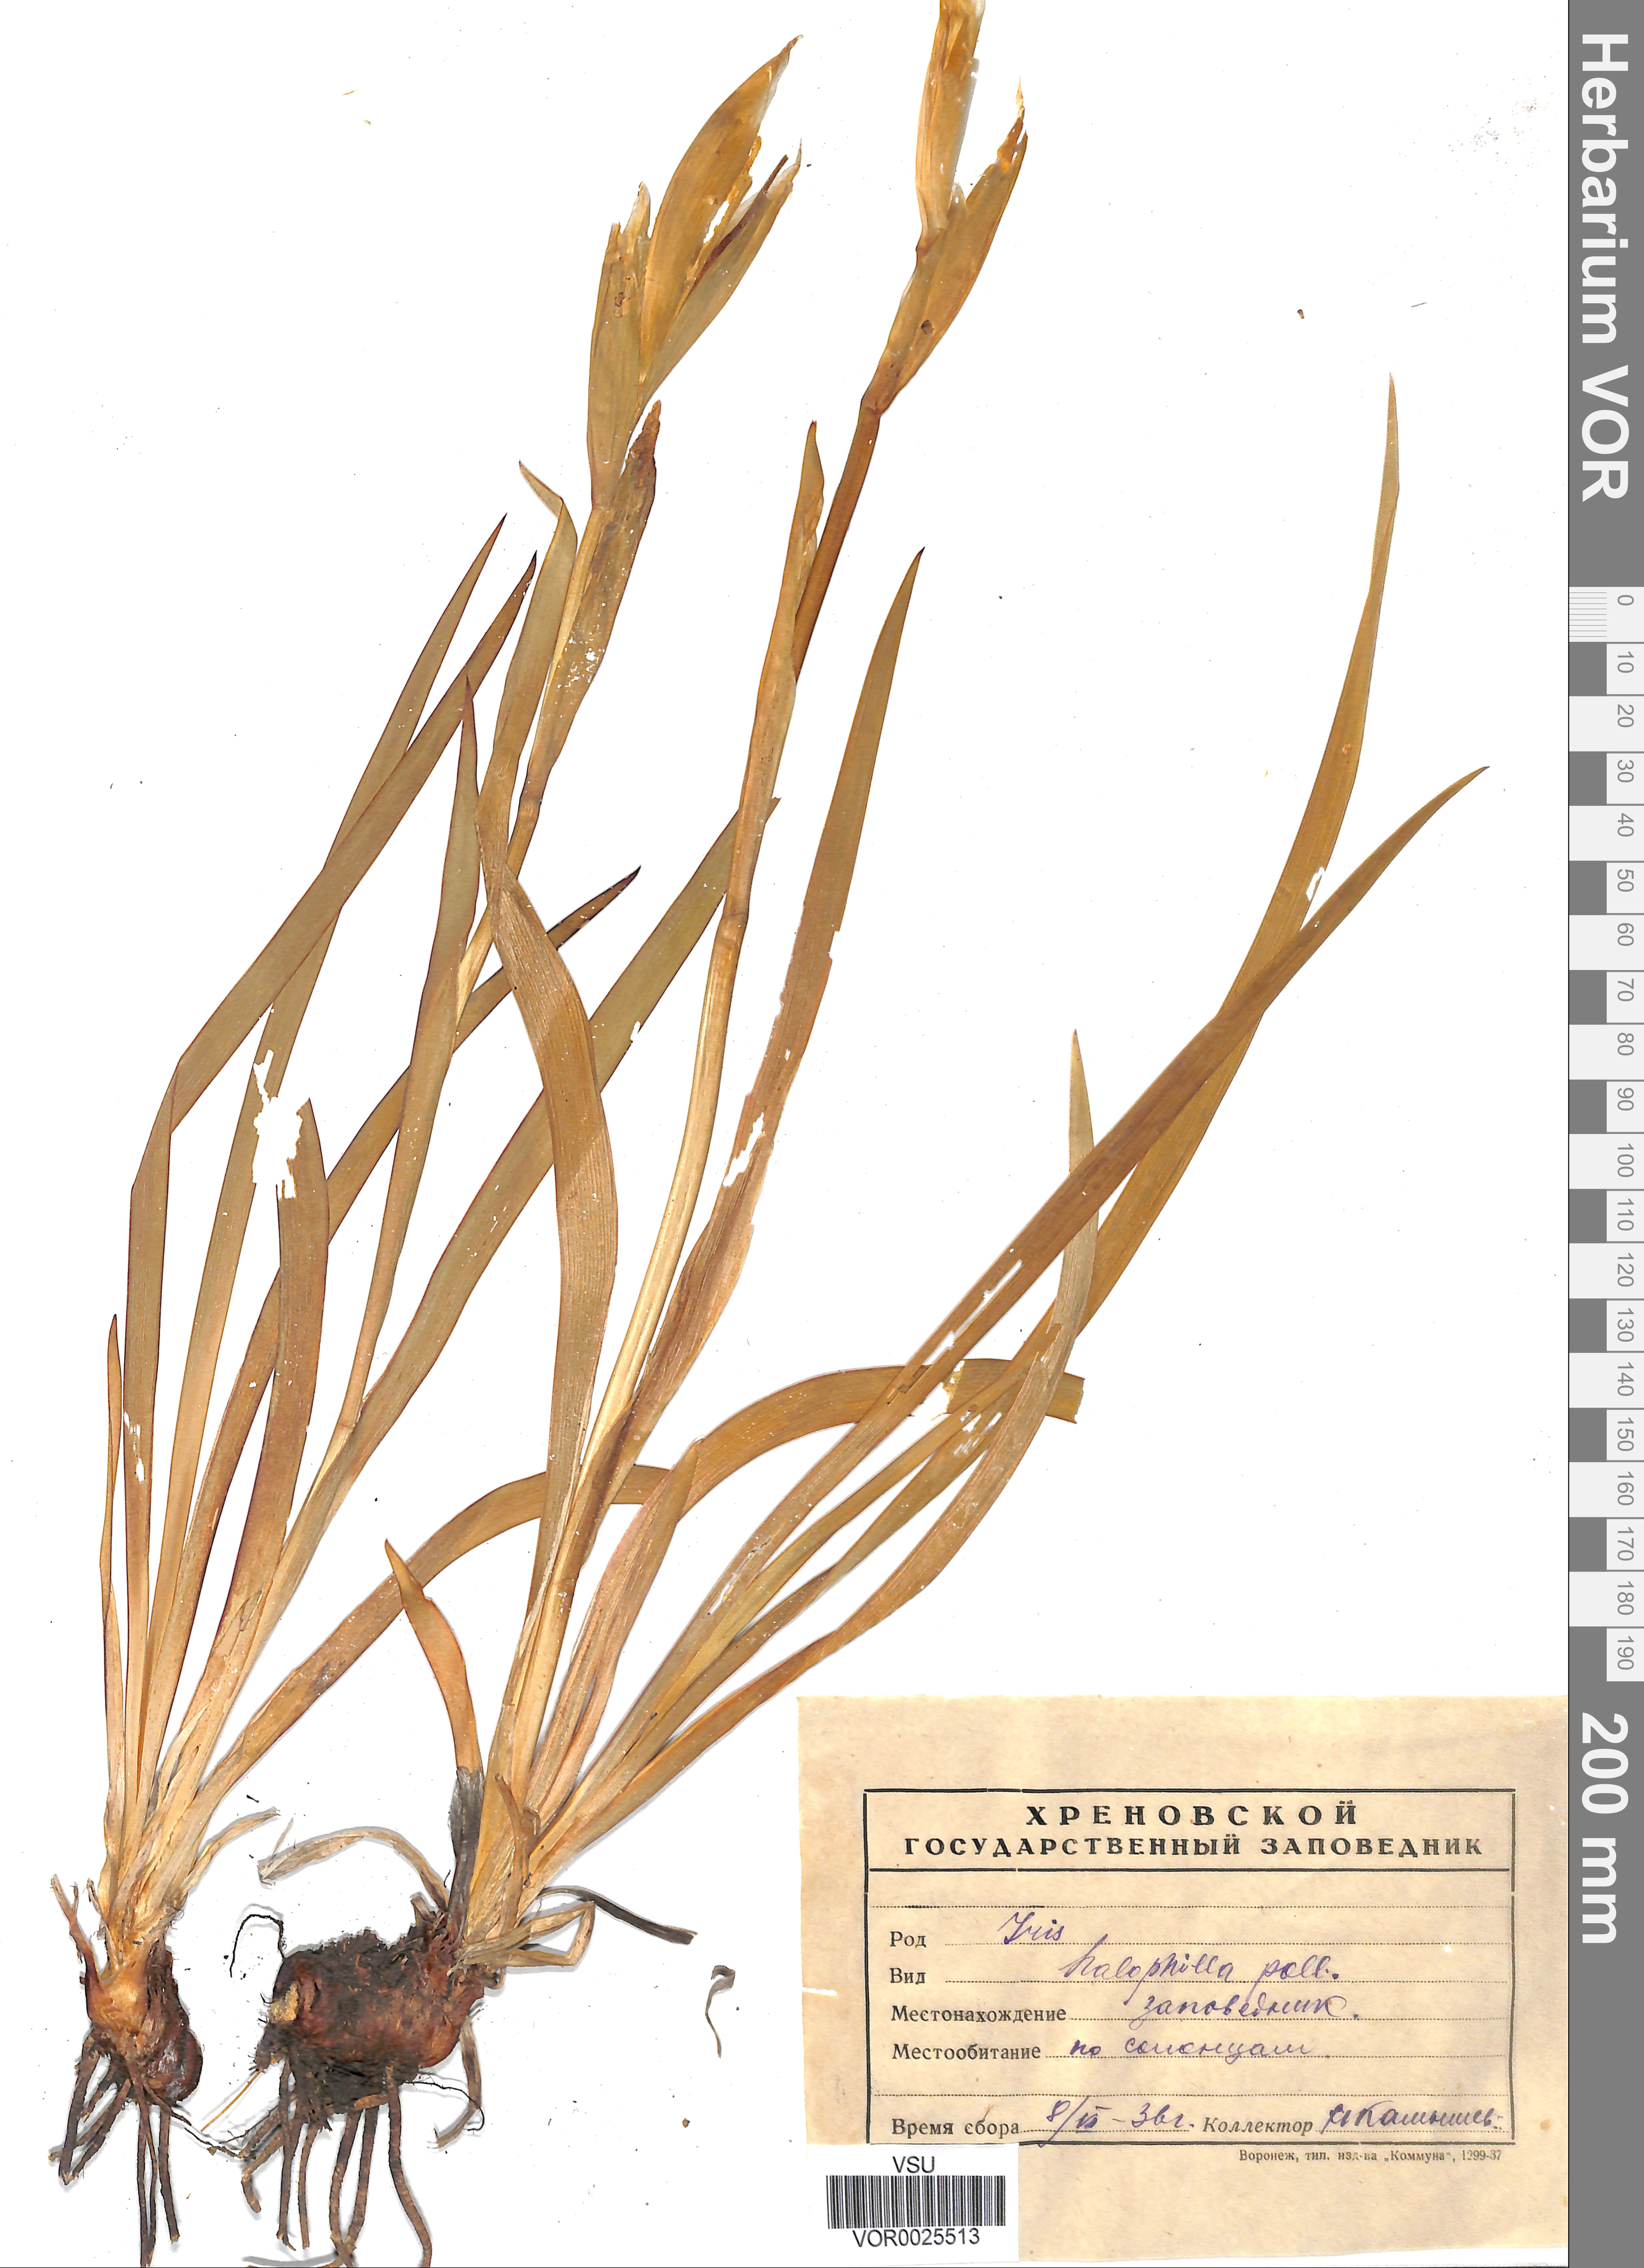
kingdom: Plantae
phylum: Tracheophyta
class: Liliopsida
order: Asparagales
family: Iridaceae
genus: Iris
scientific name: Iris halophila
